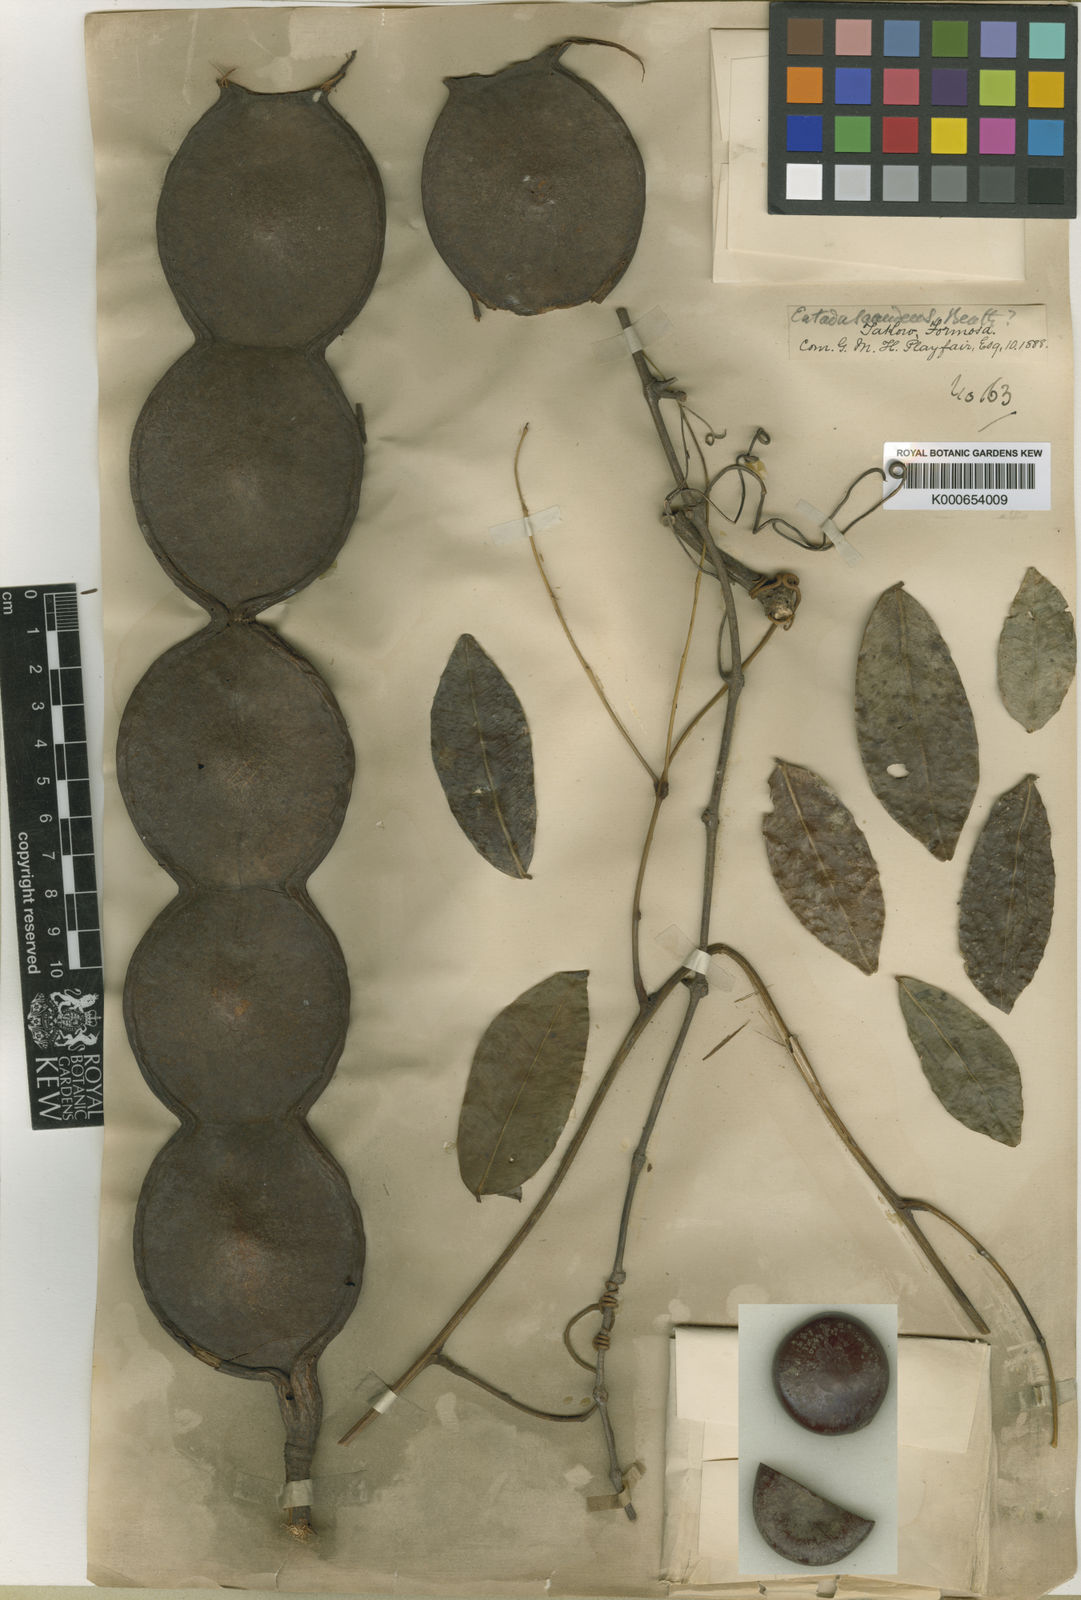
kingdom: Plantae
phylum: Tracheophyta
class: Magnoliopsida
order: Fabales
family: Fabaceae
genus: Entada
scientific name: Entada phaseoloides
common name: Matchbox-bean
